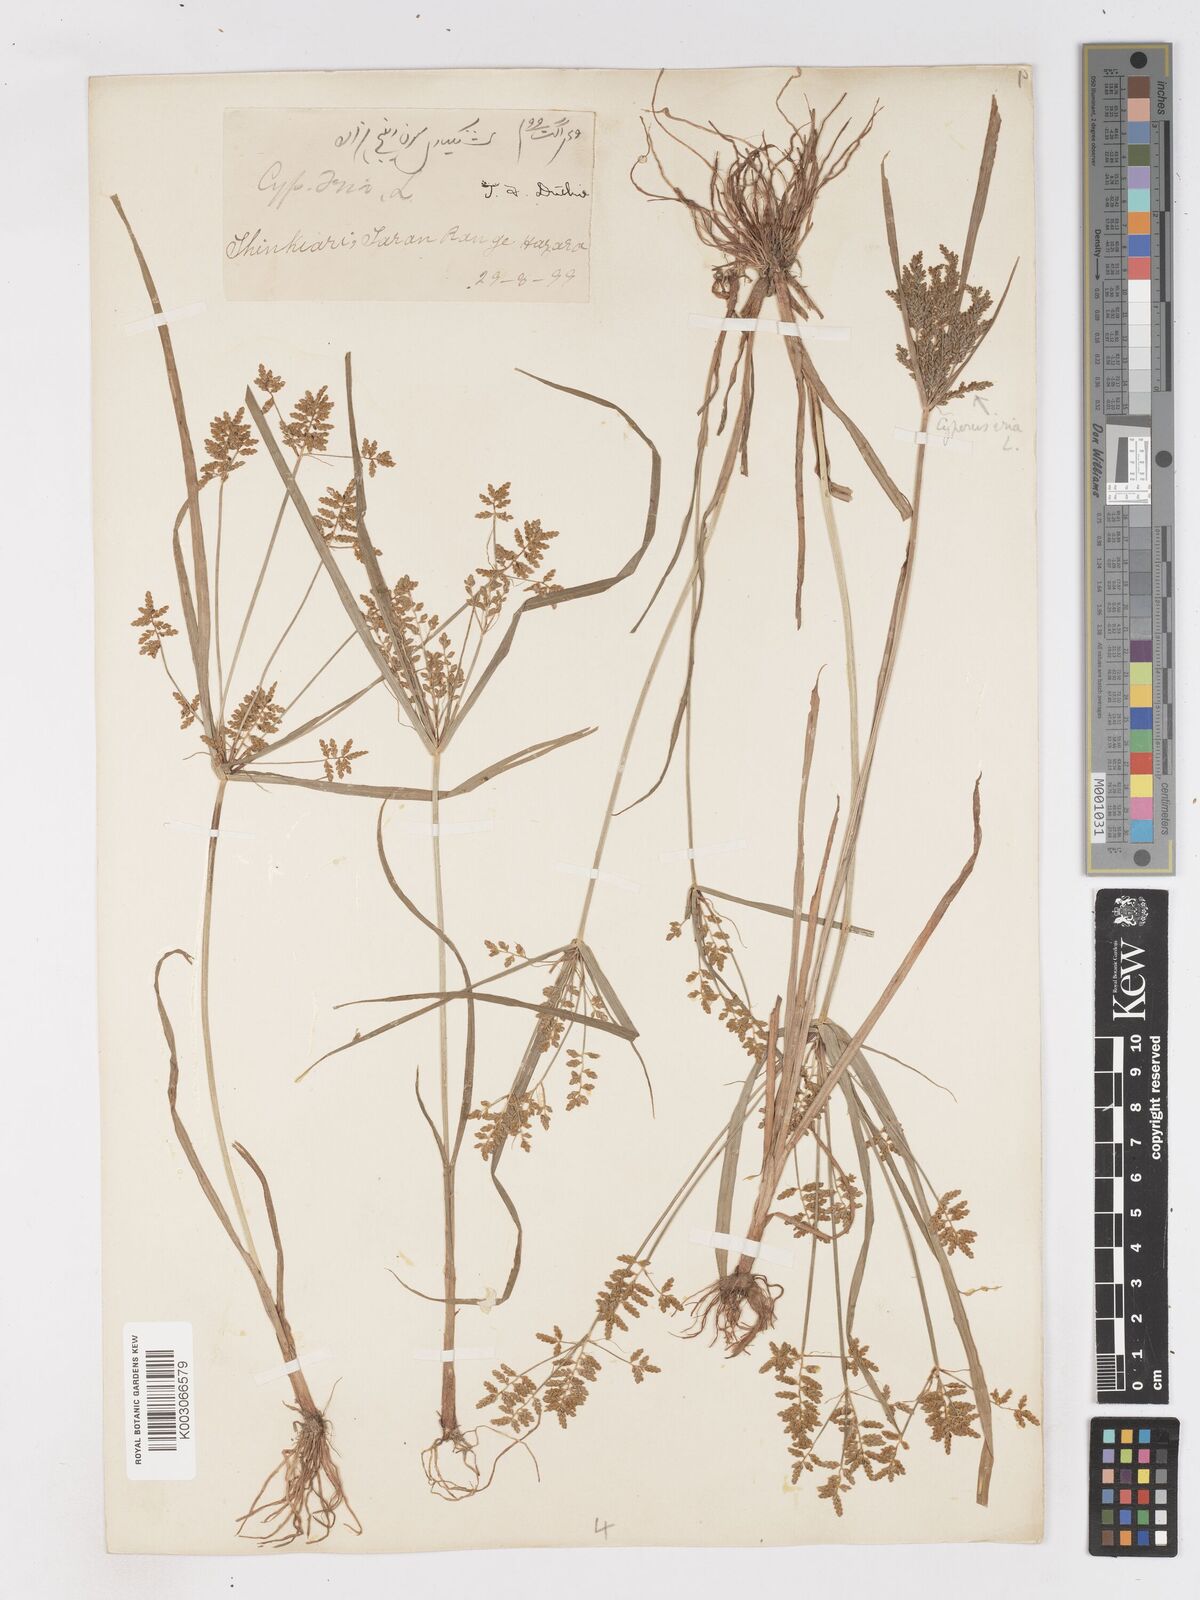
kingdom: Plantae
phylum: Tracheophyta
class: Liliopsida
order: Poales
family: Cyperaceae
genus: Cyperus
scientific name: Cyperus alulatus
